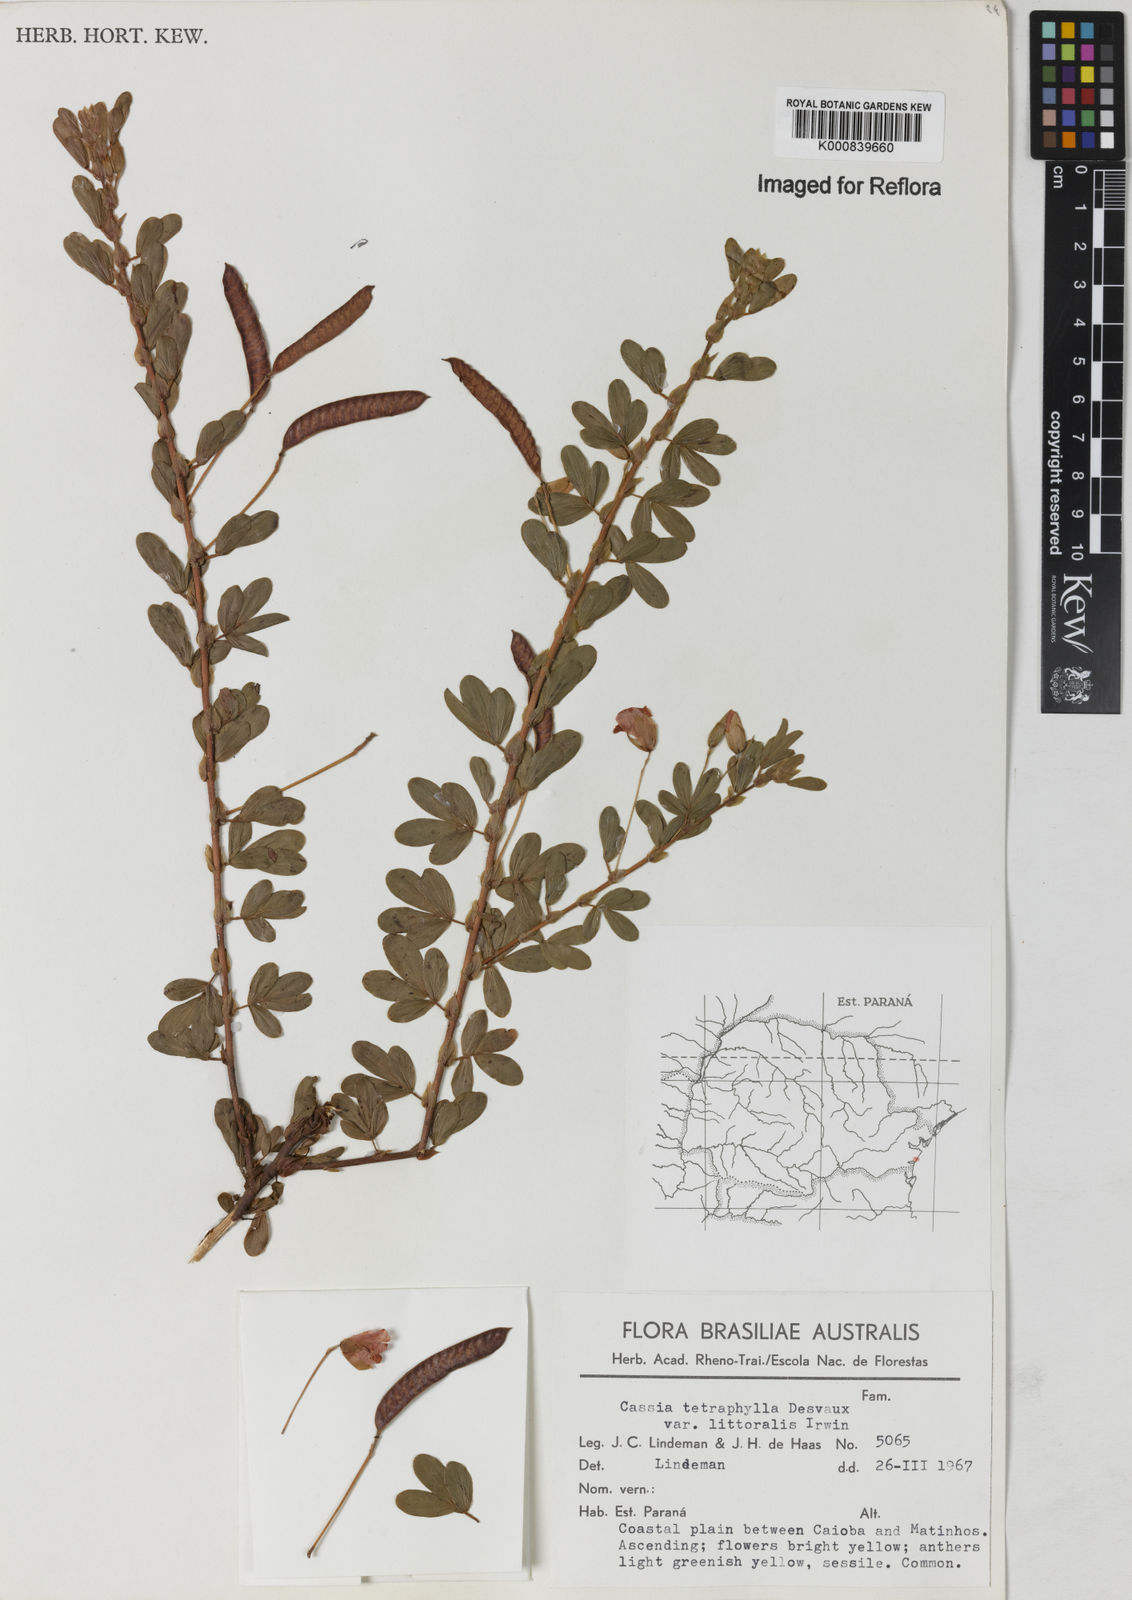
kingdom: Plantae
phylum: Tracheophyta
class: Magnoliopsida
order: Fabales
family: Fabaceae
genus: Chamaecrista
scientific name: Chamaecrista desvauxii
